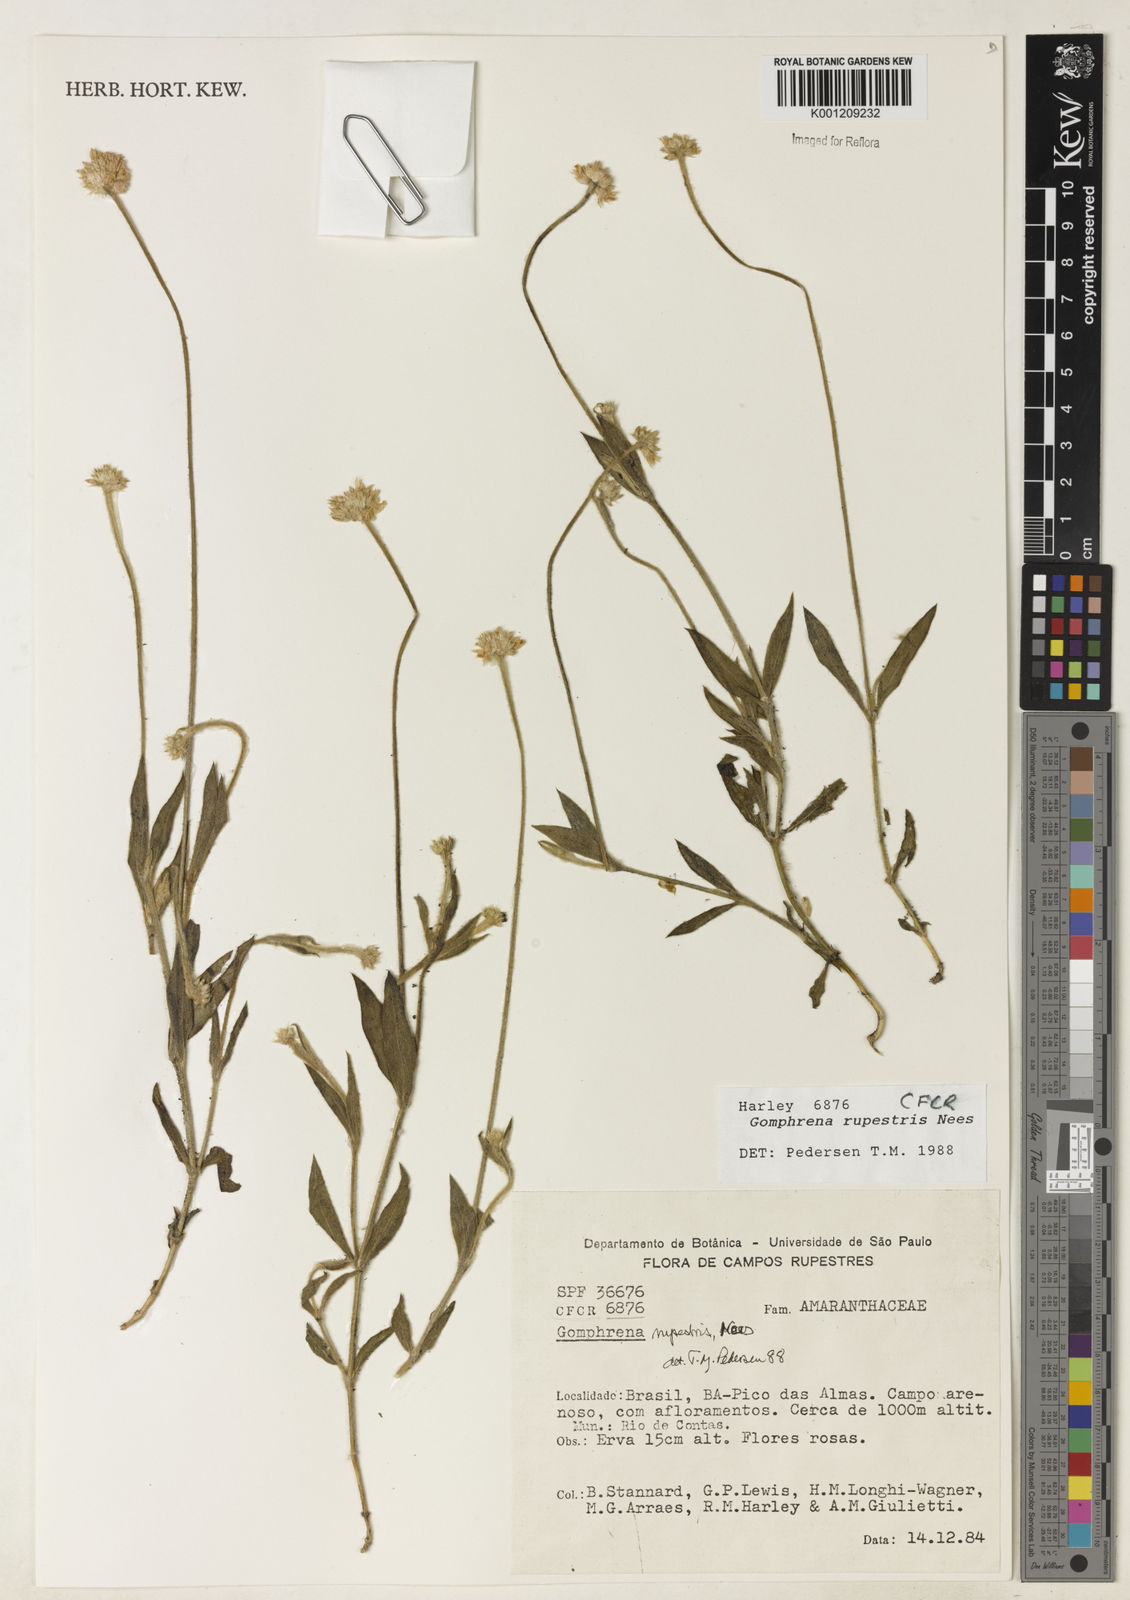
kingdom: Plantae
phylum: Tracheophyta
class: Magnoliopsida
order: Caryophyllales
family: Amaranthaceae
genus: Gomphrena
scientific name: Gomphrena rupestris
